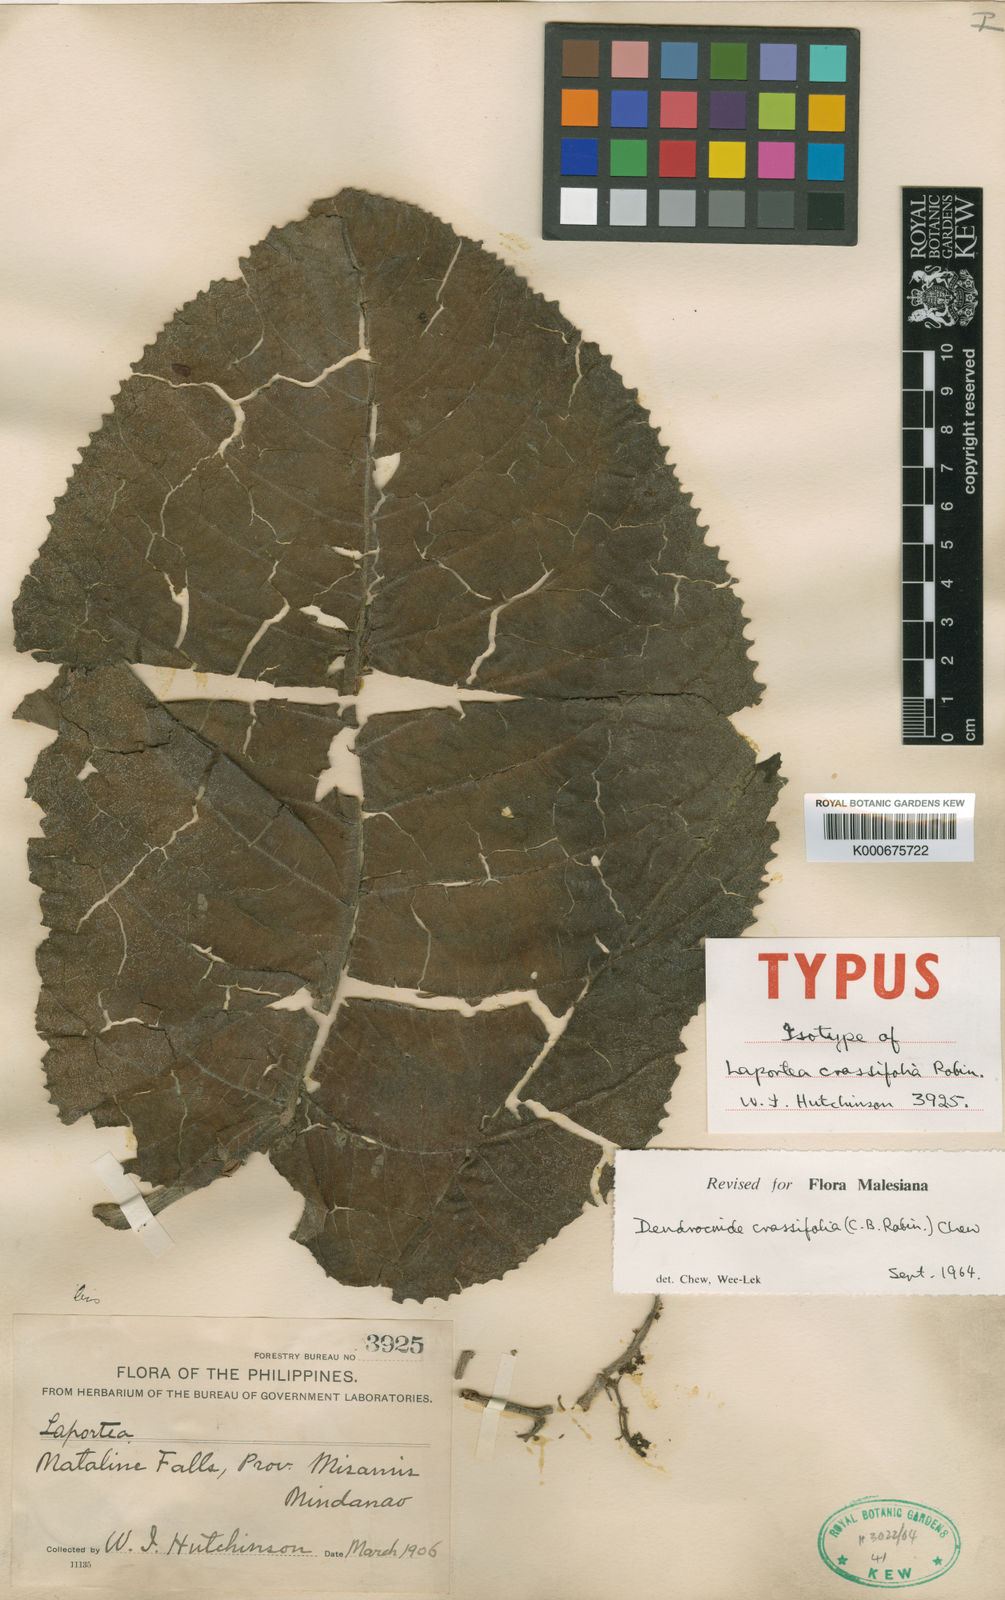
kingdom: Plantae
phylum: Tracheophyta
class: Magnoliopsida
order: Rosales
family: Urticaceae
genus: Dendrocnide
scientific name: Dendrocnide crassifolia
